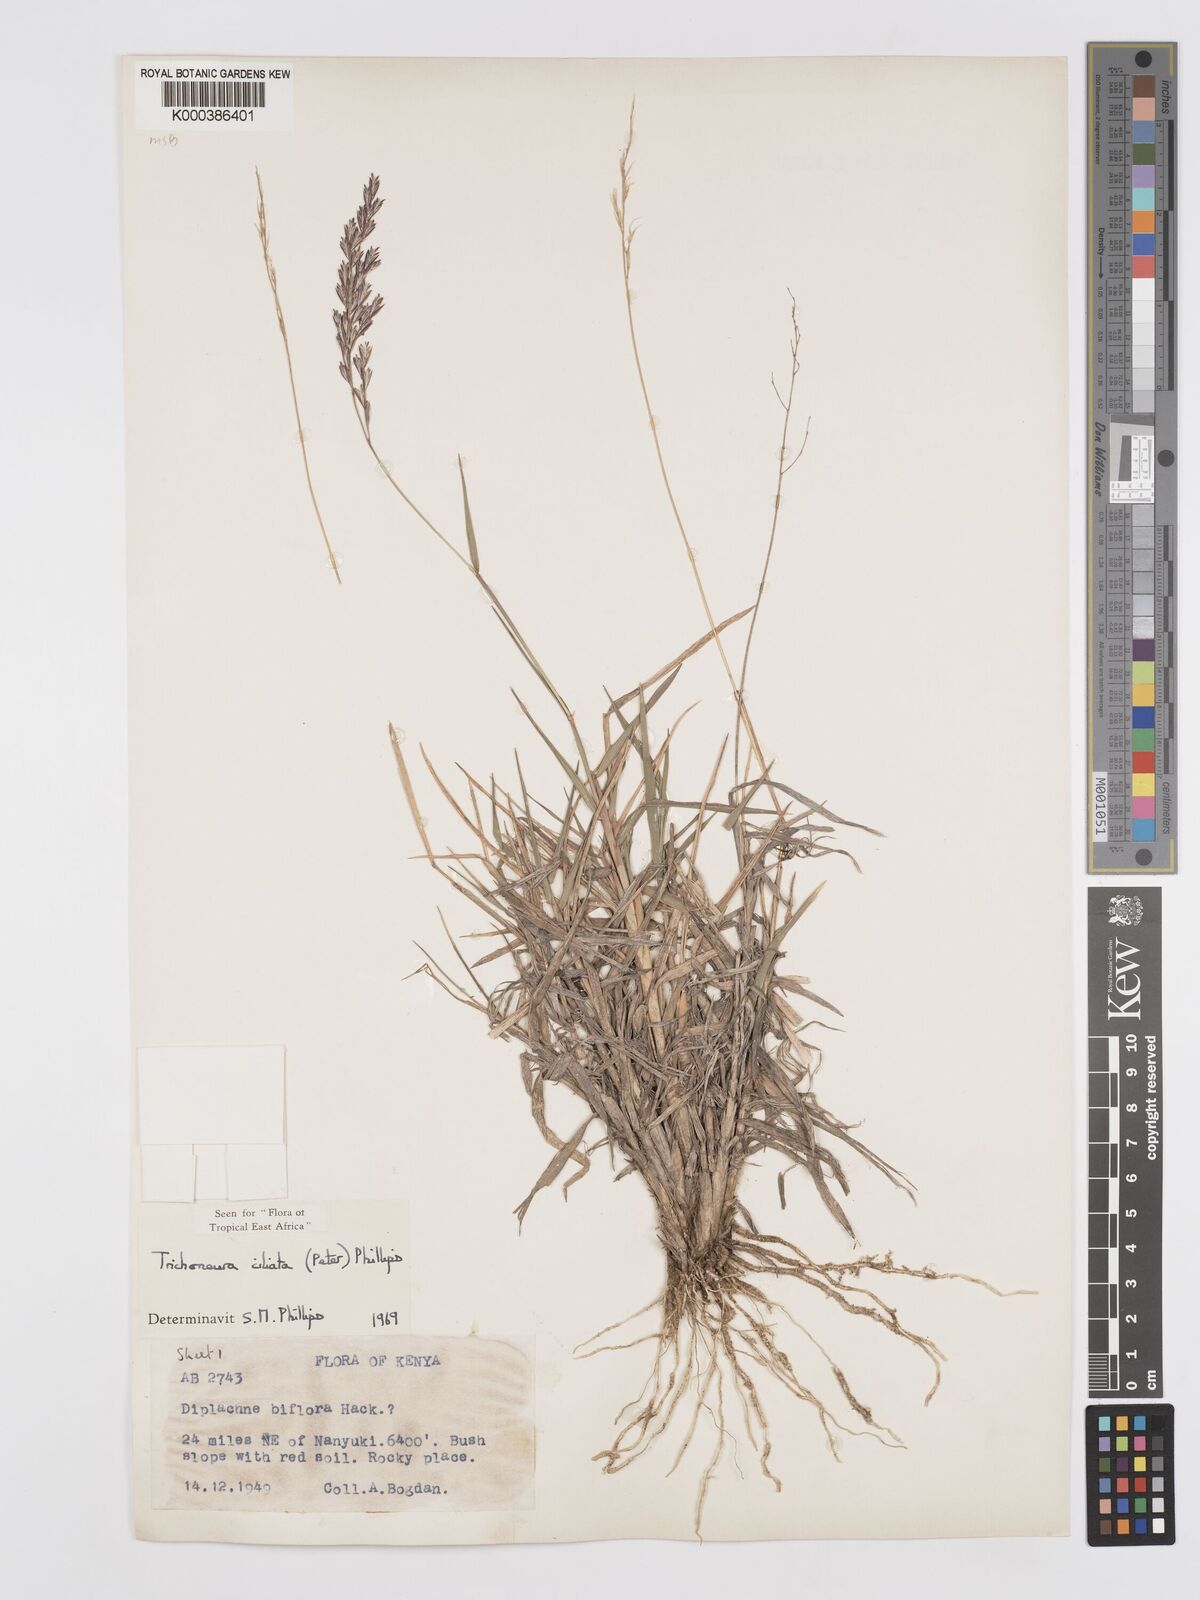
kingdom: Plantae
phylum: Tracheophyta
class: Liliopsida
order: Poales
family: Poaceae
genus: Trichoneura
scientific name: Trichoneura ciliata
